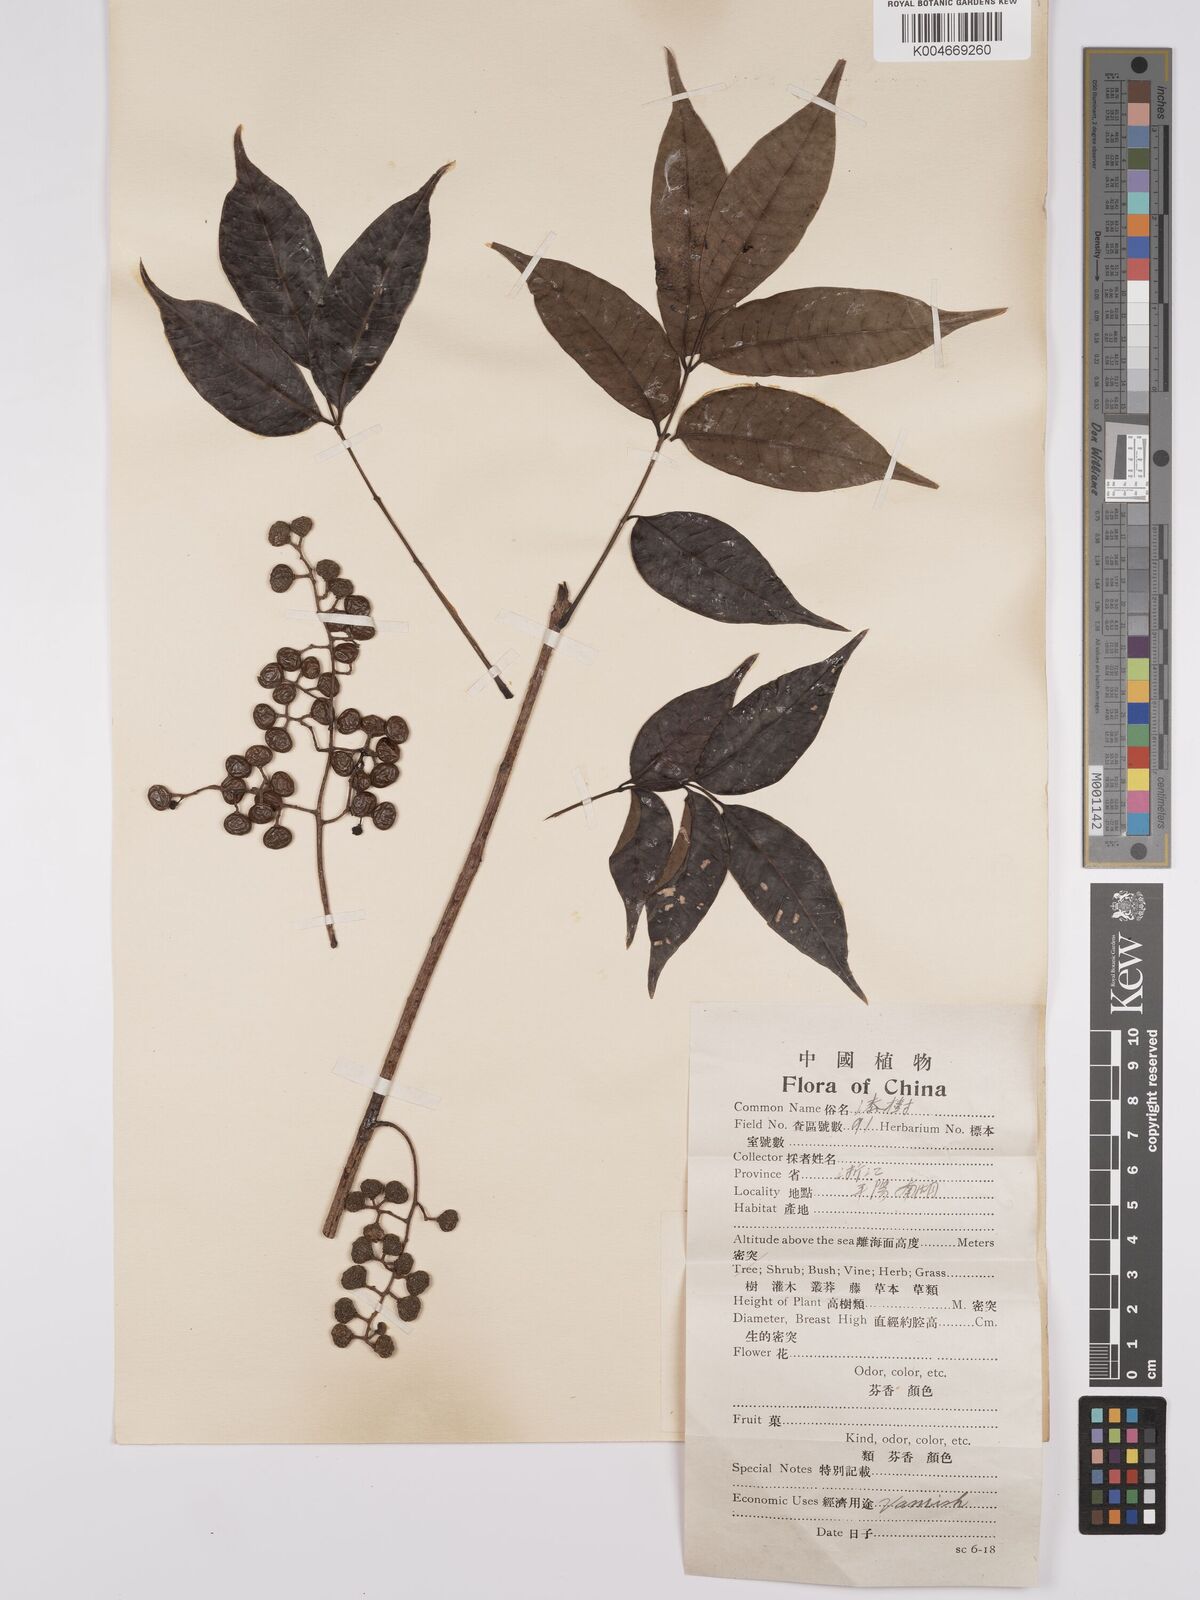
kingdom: Plantae
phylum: Tracheophyta
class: Magnoliopsida
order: Sapindales
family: Anacardiaceae
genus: Toxicodendron
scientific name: Toxicodendron succedaneum
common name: Wax tree
